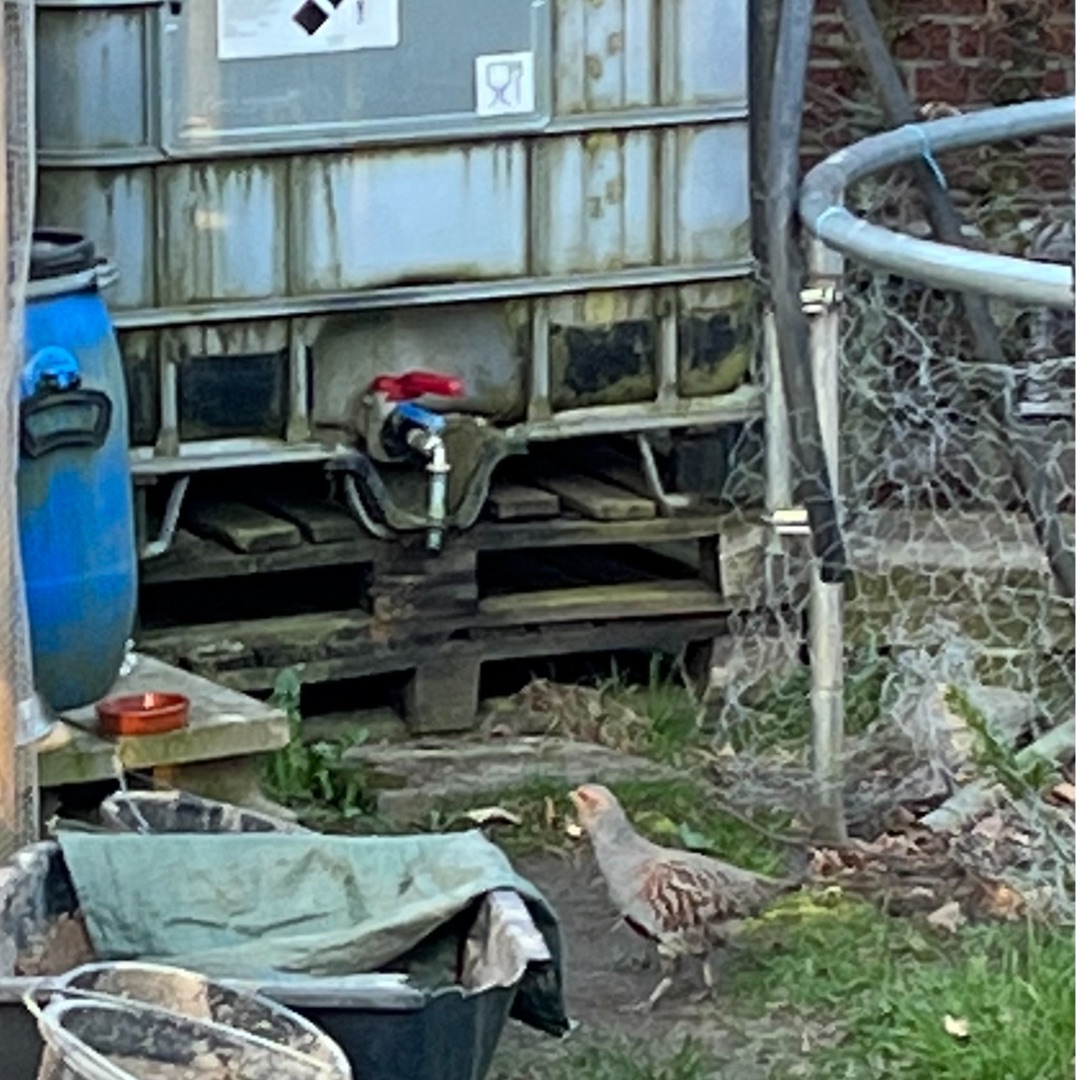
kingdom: Animalia
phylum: Chordata
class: Aves
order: Galliformes
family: Phasianidae
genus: Perdix
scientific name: Perdix perdix
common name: Agerhøne
